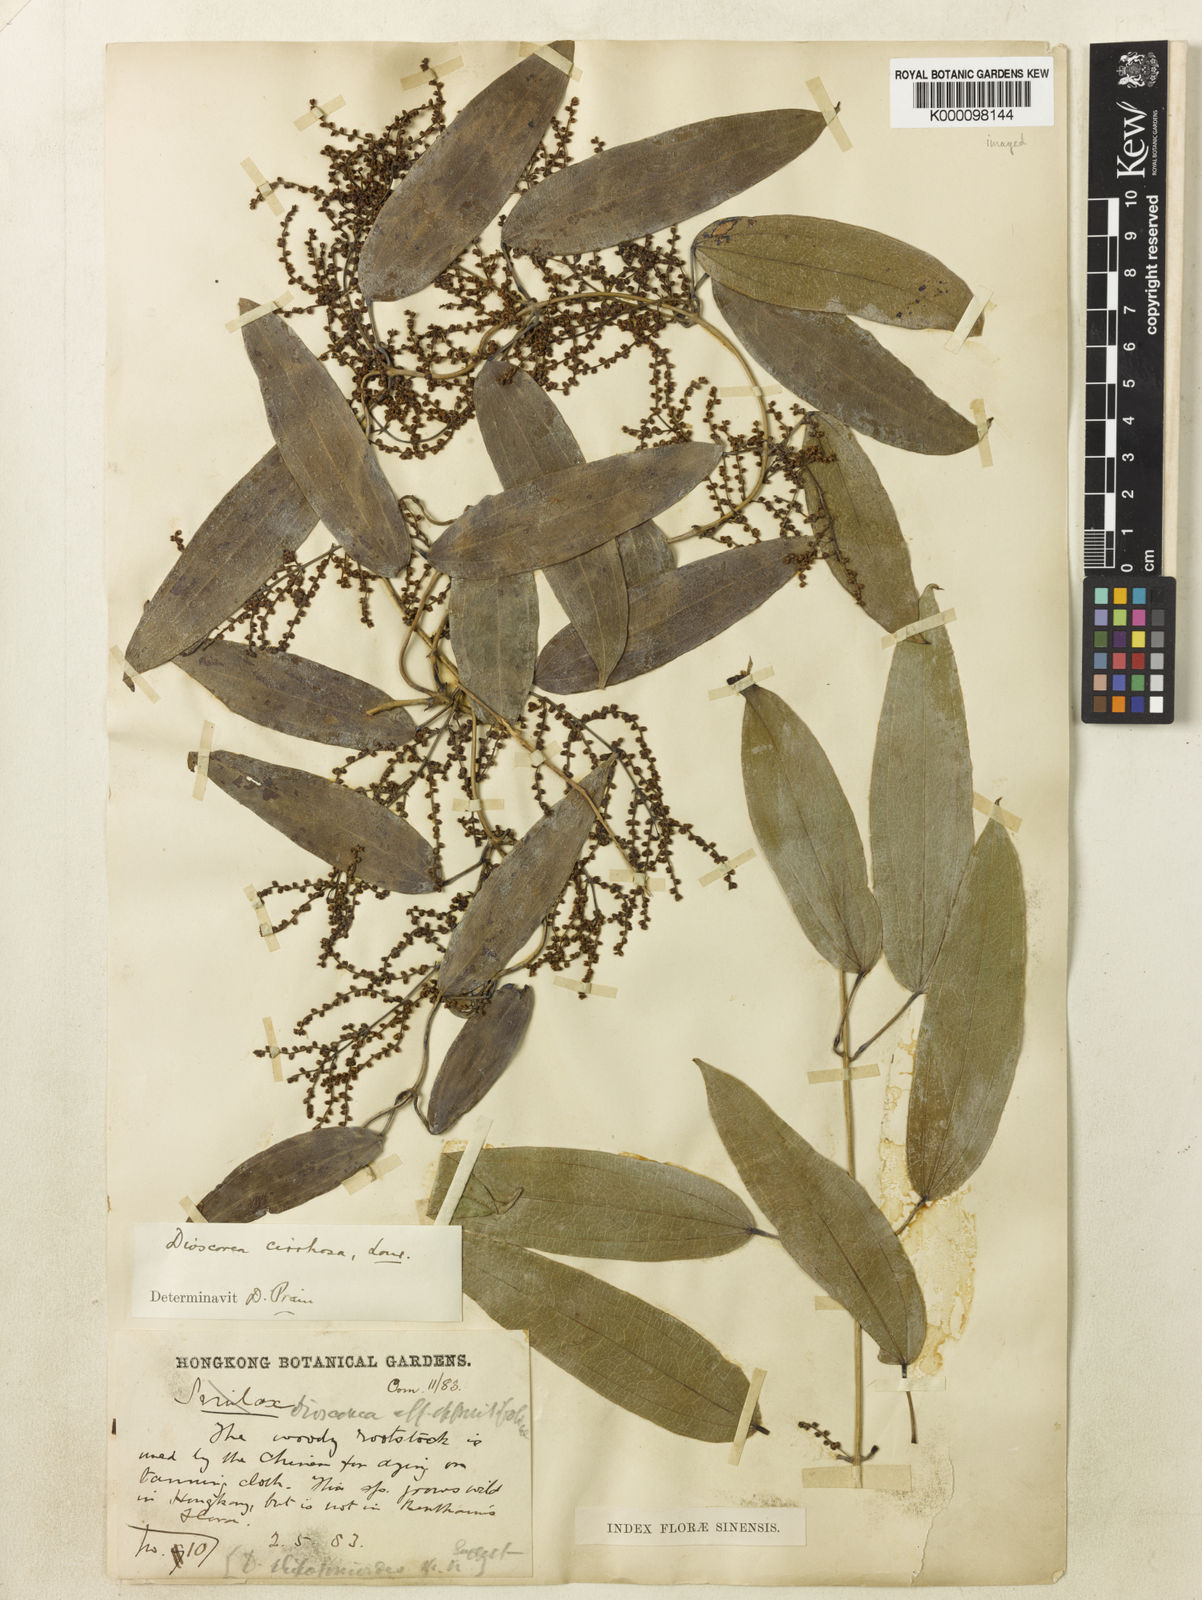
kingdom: Plantae
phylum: Tracheophyta
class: Liliopsida
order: Dioscoreales
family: Dioscoreaceae
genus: Dioscorea
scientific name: Dioscorea cirrhosa
